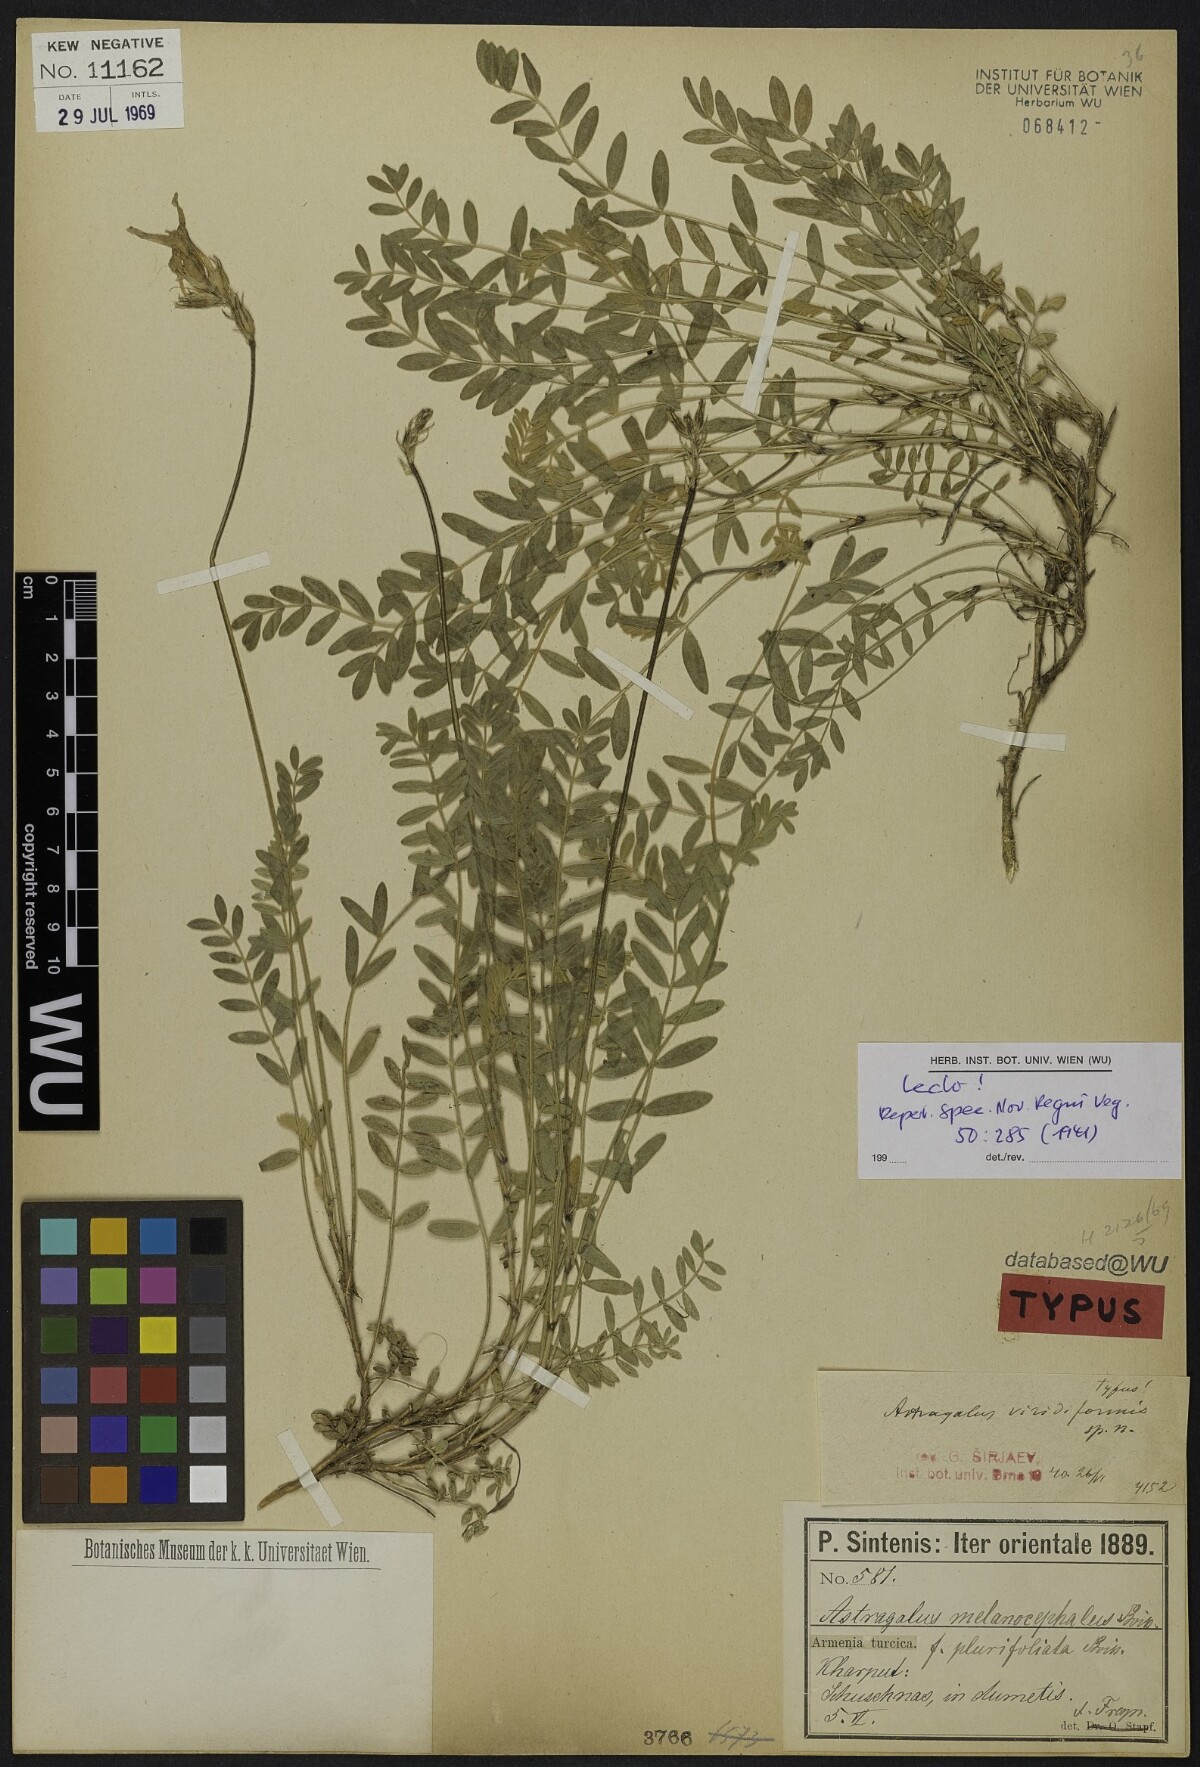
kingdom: Plantae
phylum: Tracheophyta
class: Magnoliopsida
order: Fabales
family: Fabaceae
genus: Astragalus
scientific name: Astragalus viridiformis
